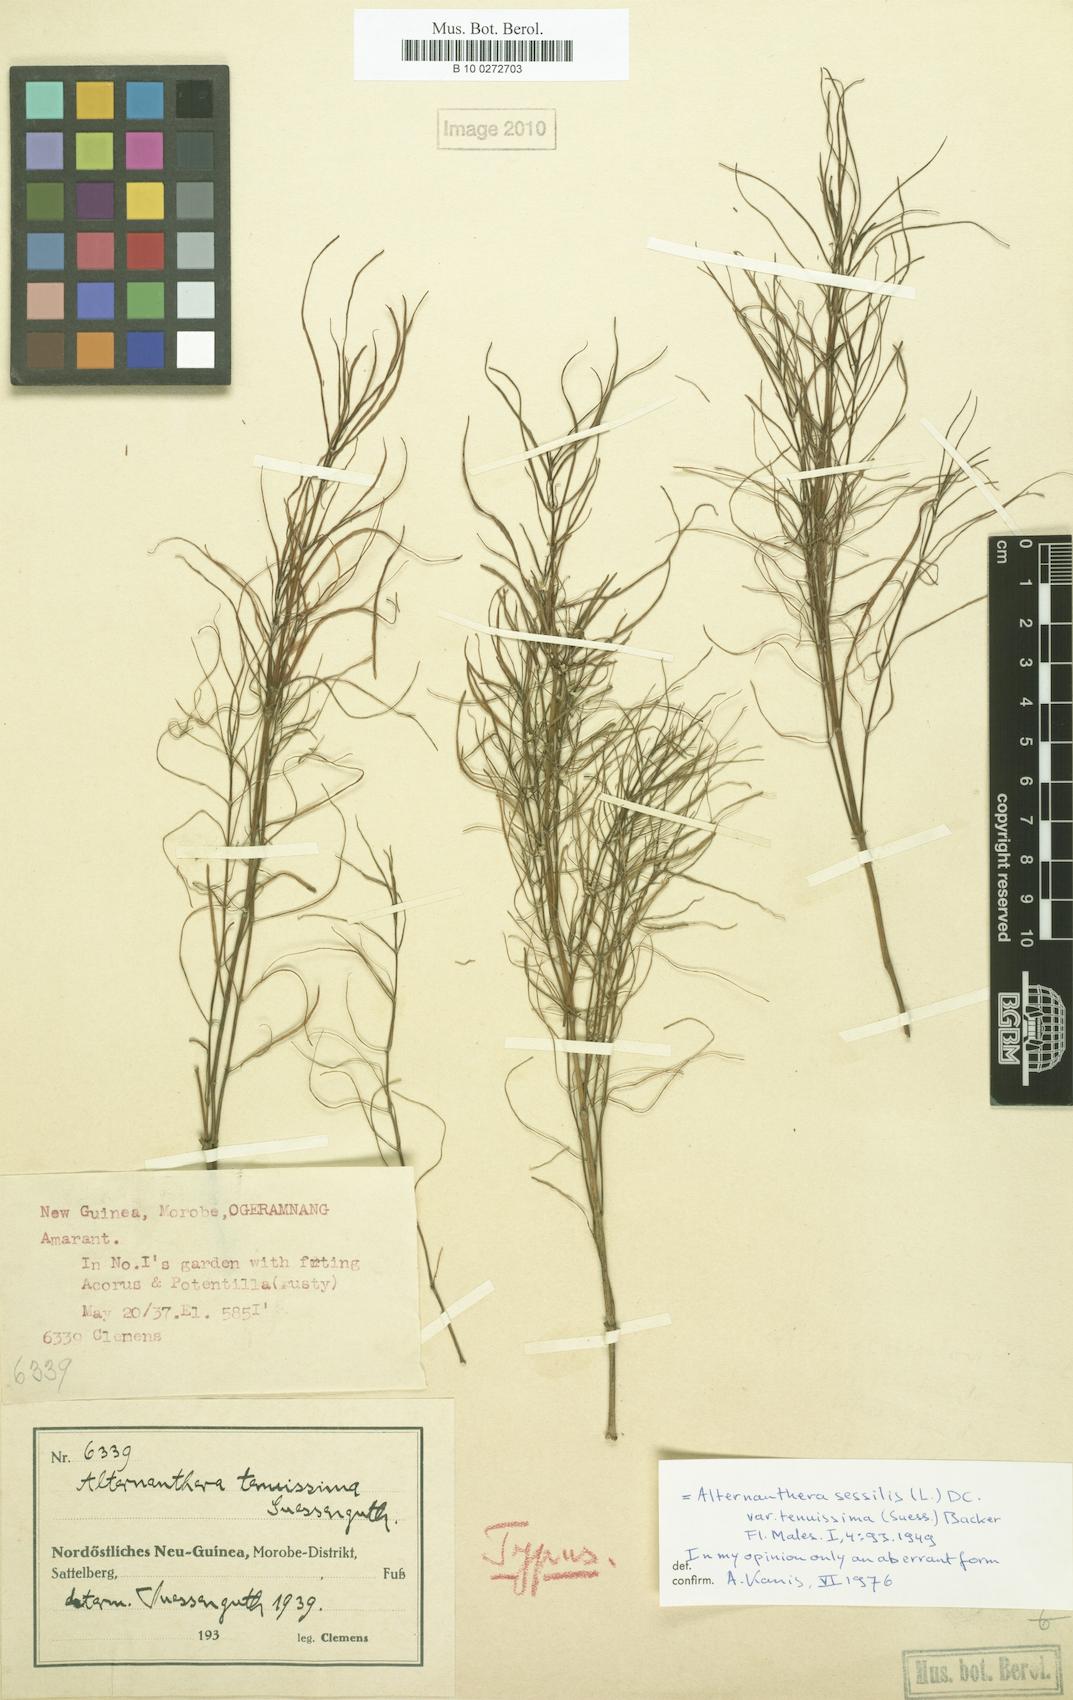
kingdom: Plantae
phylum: Tracheophyta
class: Magnoliopsida
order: Caryophyllales
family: Amaranthaceae
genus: Alternanthera
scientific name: Alternanthera sessilis
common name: Sessile joyweed
